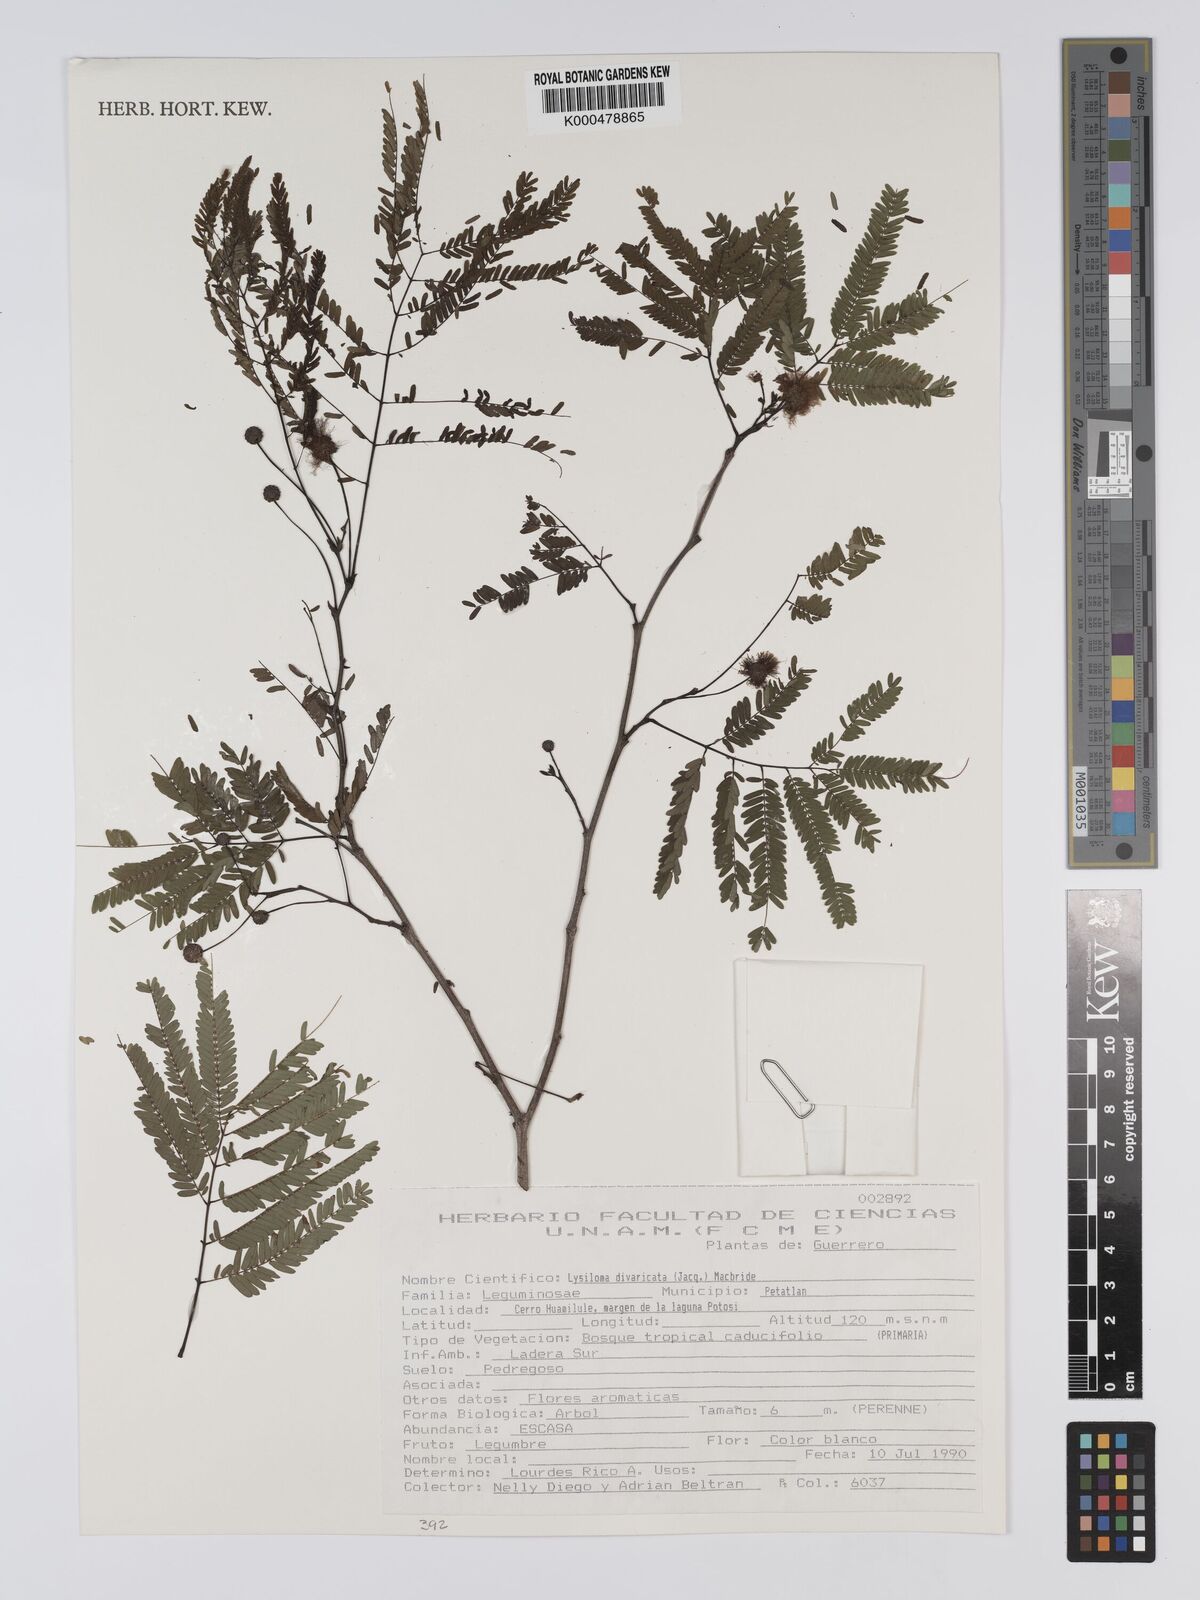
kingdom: Plantae
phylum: Tracheophyta
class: Magnoliopsida
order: Fabales
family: Fabaceae
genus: Lysiloma
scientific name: Lysiloma divaricatum
